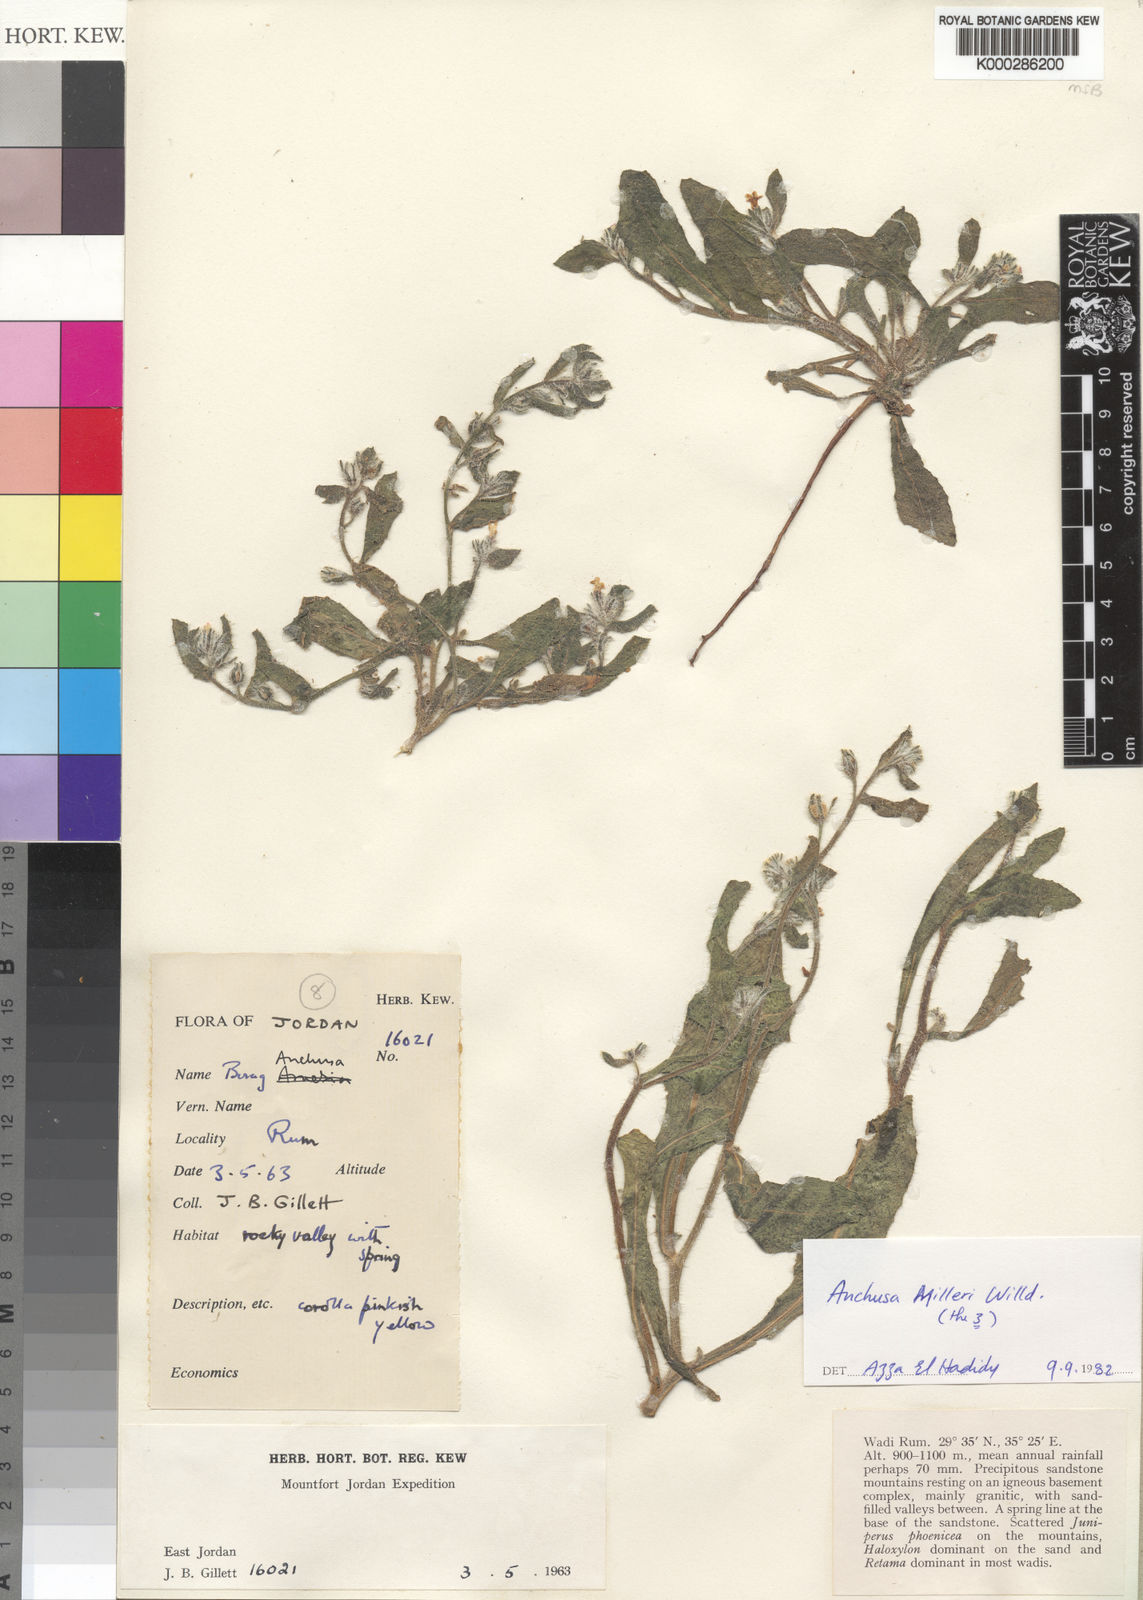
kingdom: Plantae
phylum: Tracheophyta
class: Magnoliopsida
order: Boraginales
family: Boraginaceae
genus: Anchusa
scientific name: Anchusa
